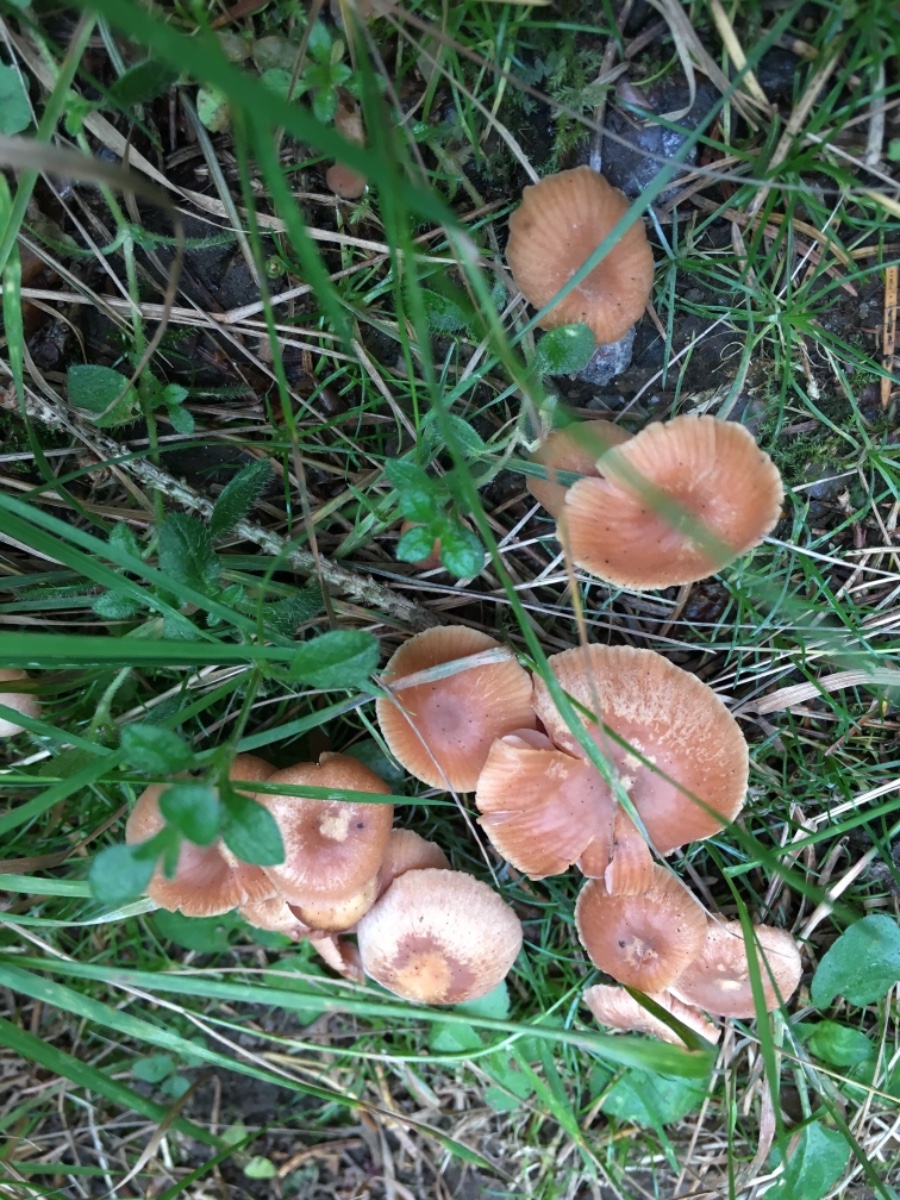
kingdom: Fungi
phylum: Basidiomycota
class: Agaricomycetes
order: Agaricales
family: Hydnangiaceae
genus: Laccaria
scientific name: Laccaria laccata
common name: rød ametysthat
